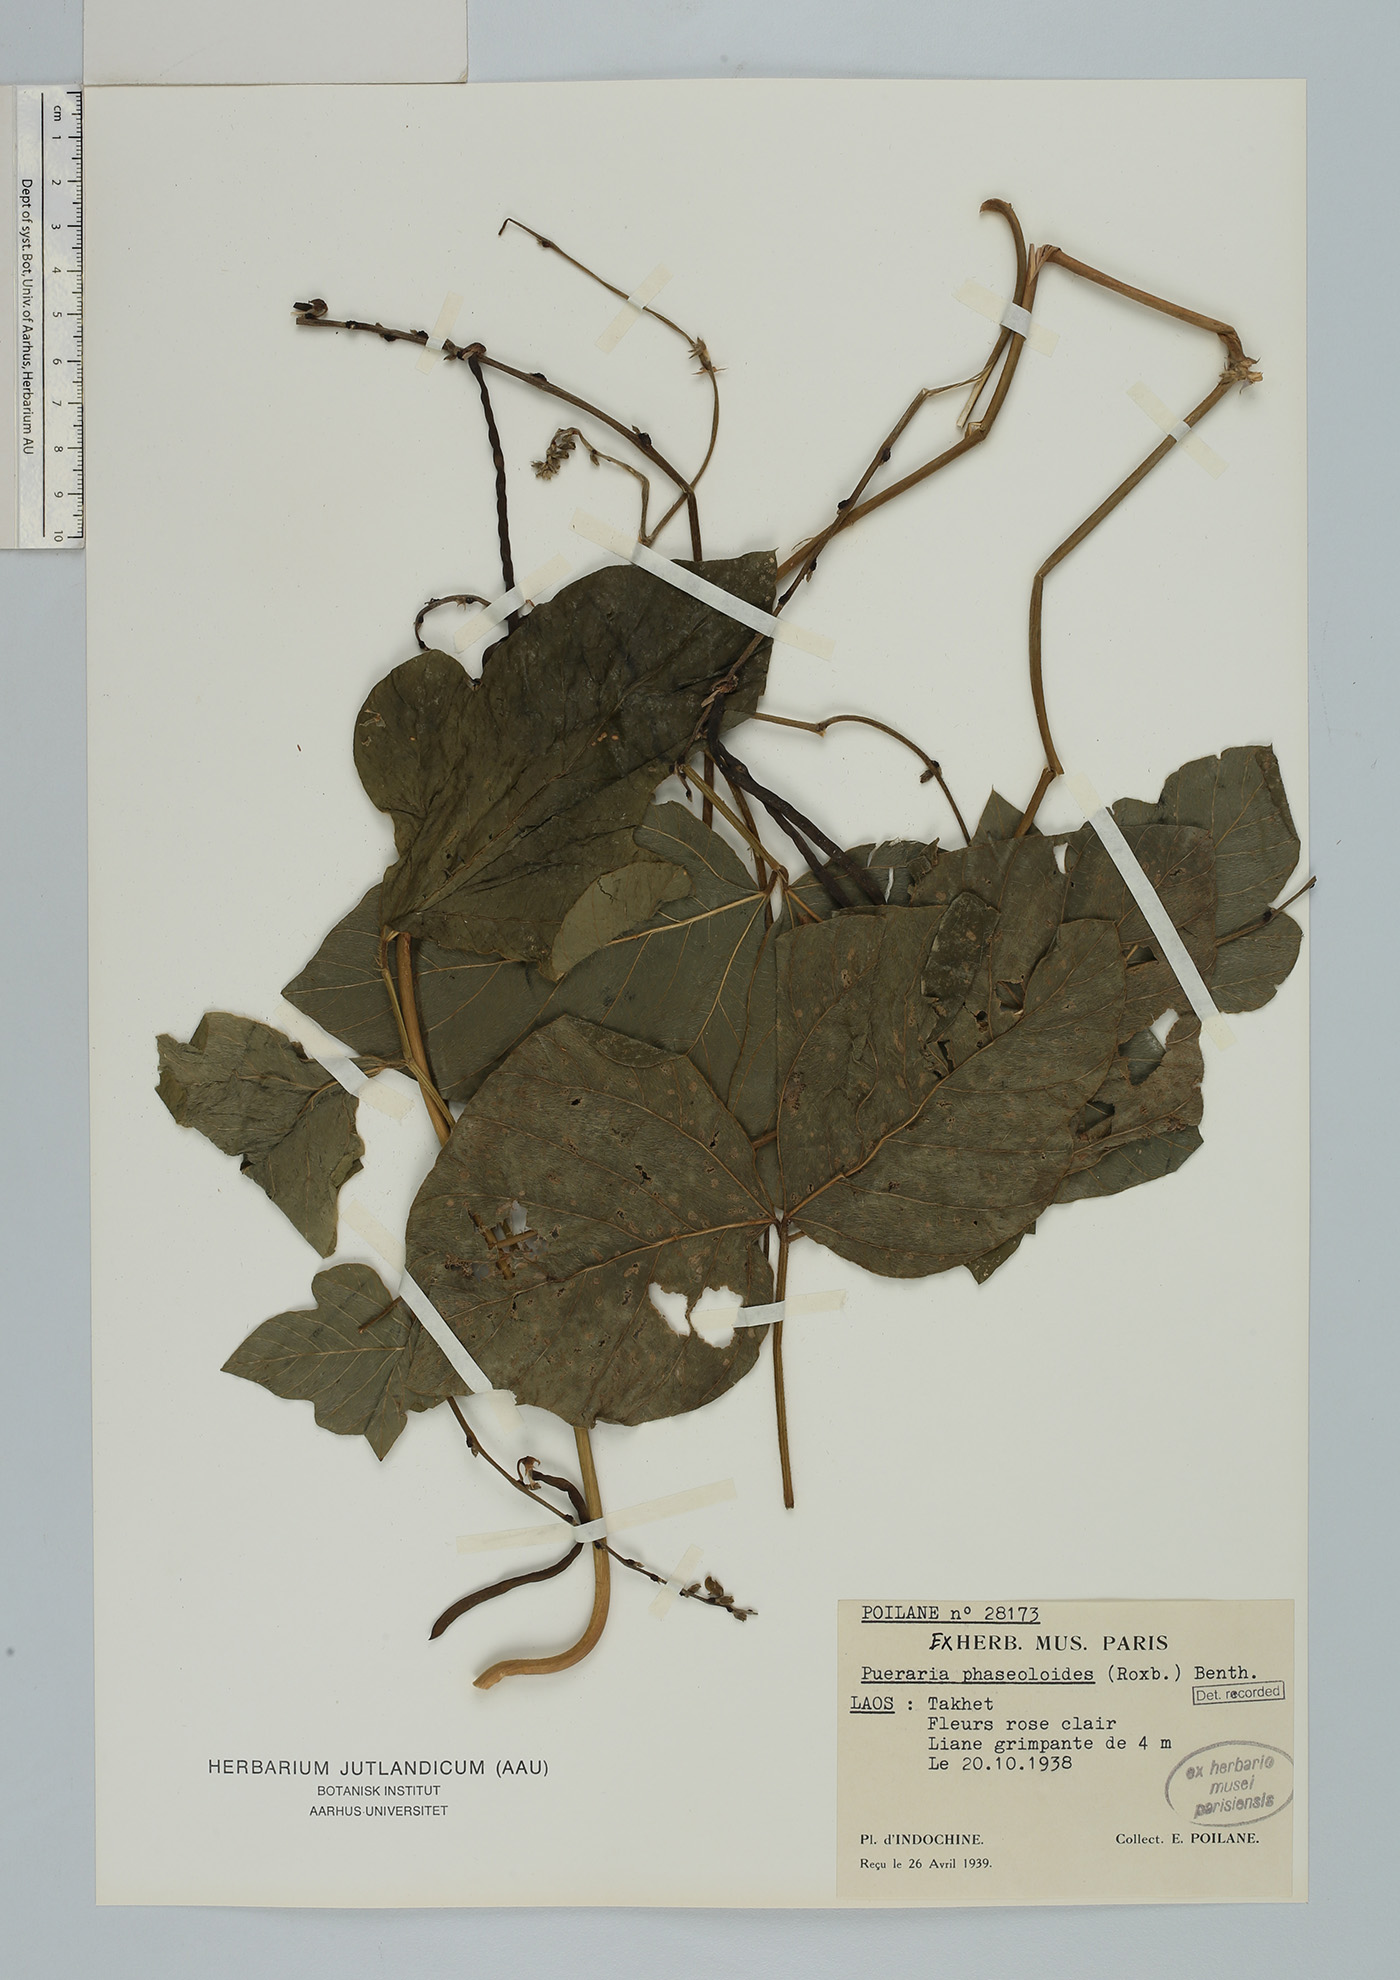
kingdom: Plantae
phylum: Tracheophyta
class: Magnoliopsida
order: Fabales
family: Fabaceae
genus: Neustanthus
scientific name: Neustanthus phaseoloides
